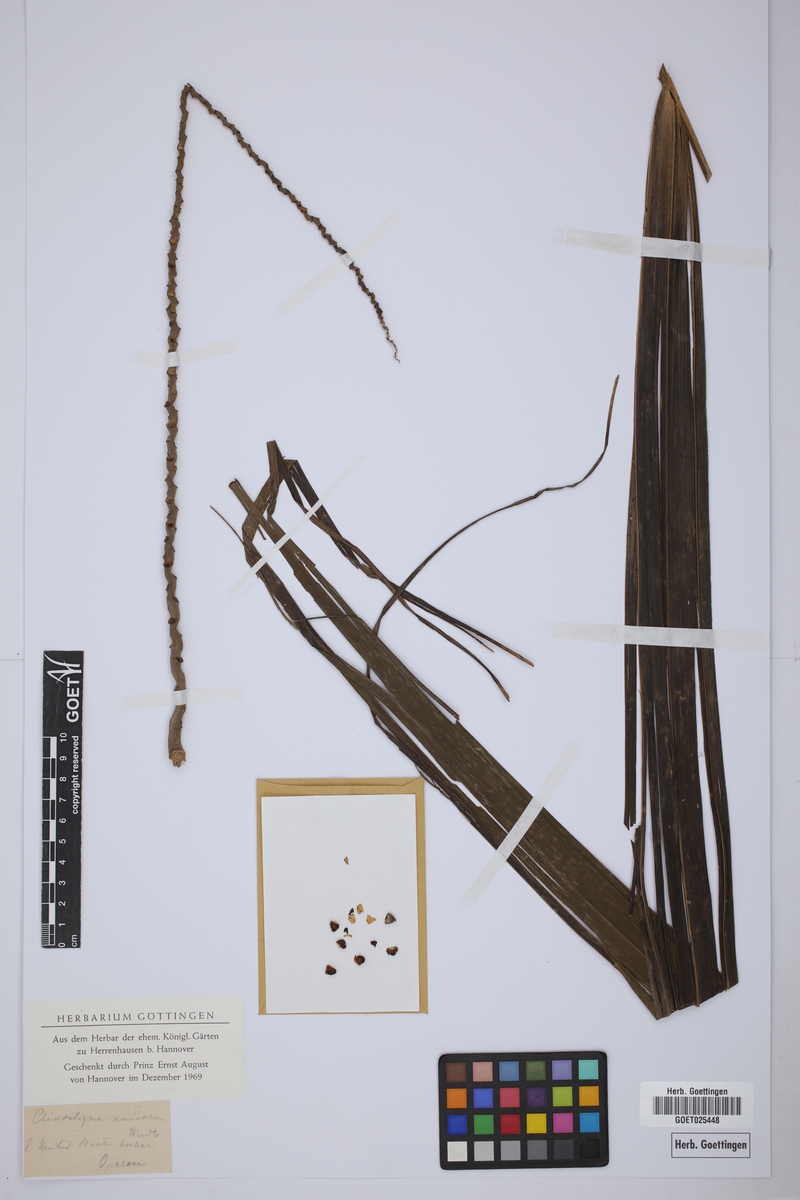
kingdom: Plantae
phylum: Tracheophyta
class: Liliopsida
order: Arecales
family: Arecaceae
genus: Clinostigma
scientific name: Clinostigma
